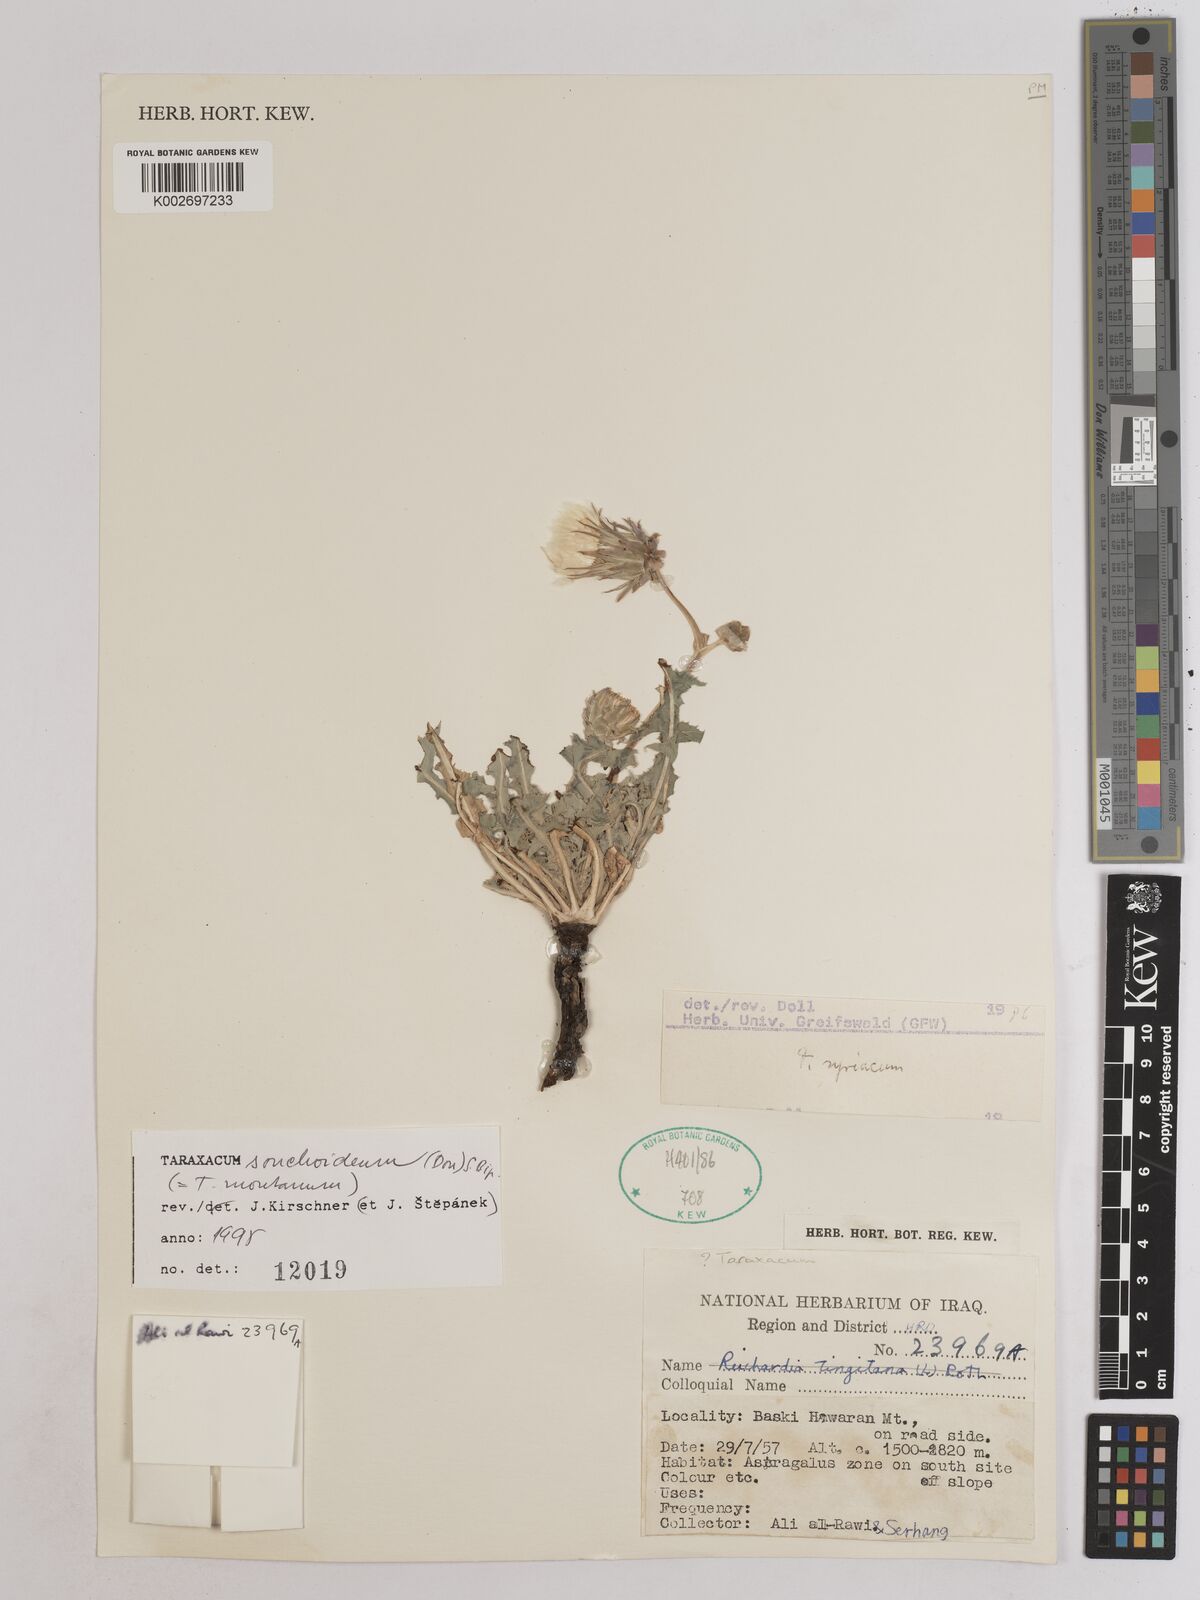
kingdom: Plantae
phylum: Tracheophyta
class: Magnoliopsida
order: Asterales
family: Asteraceae
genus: Taraxacum
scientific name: Taraxacum syriacum
